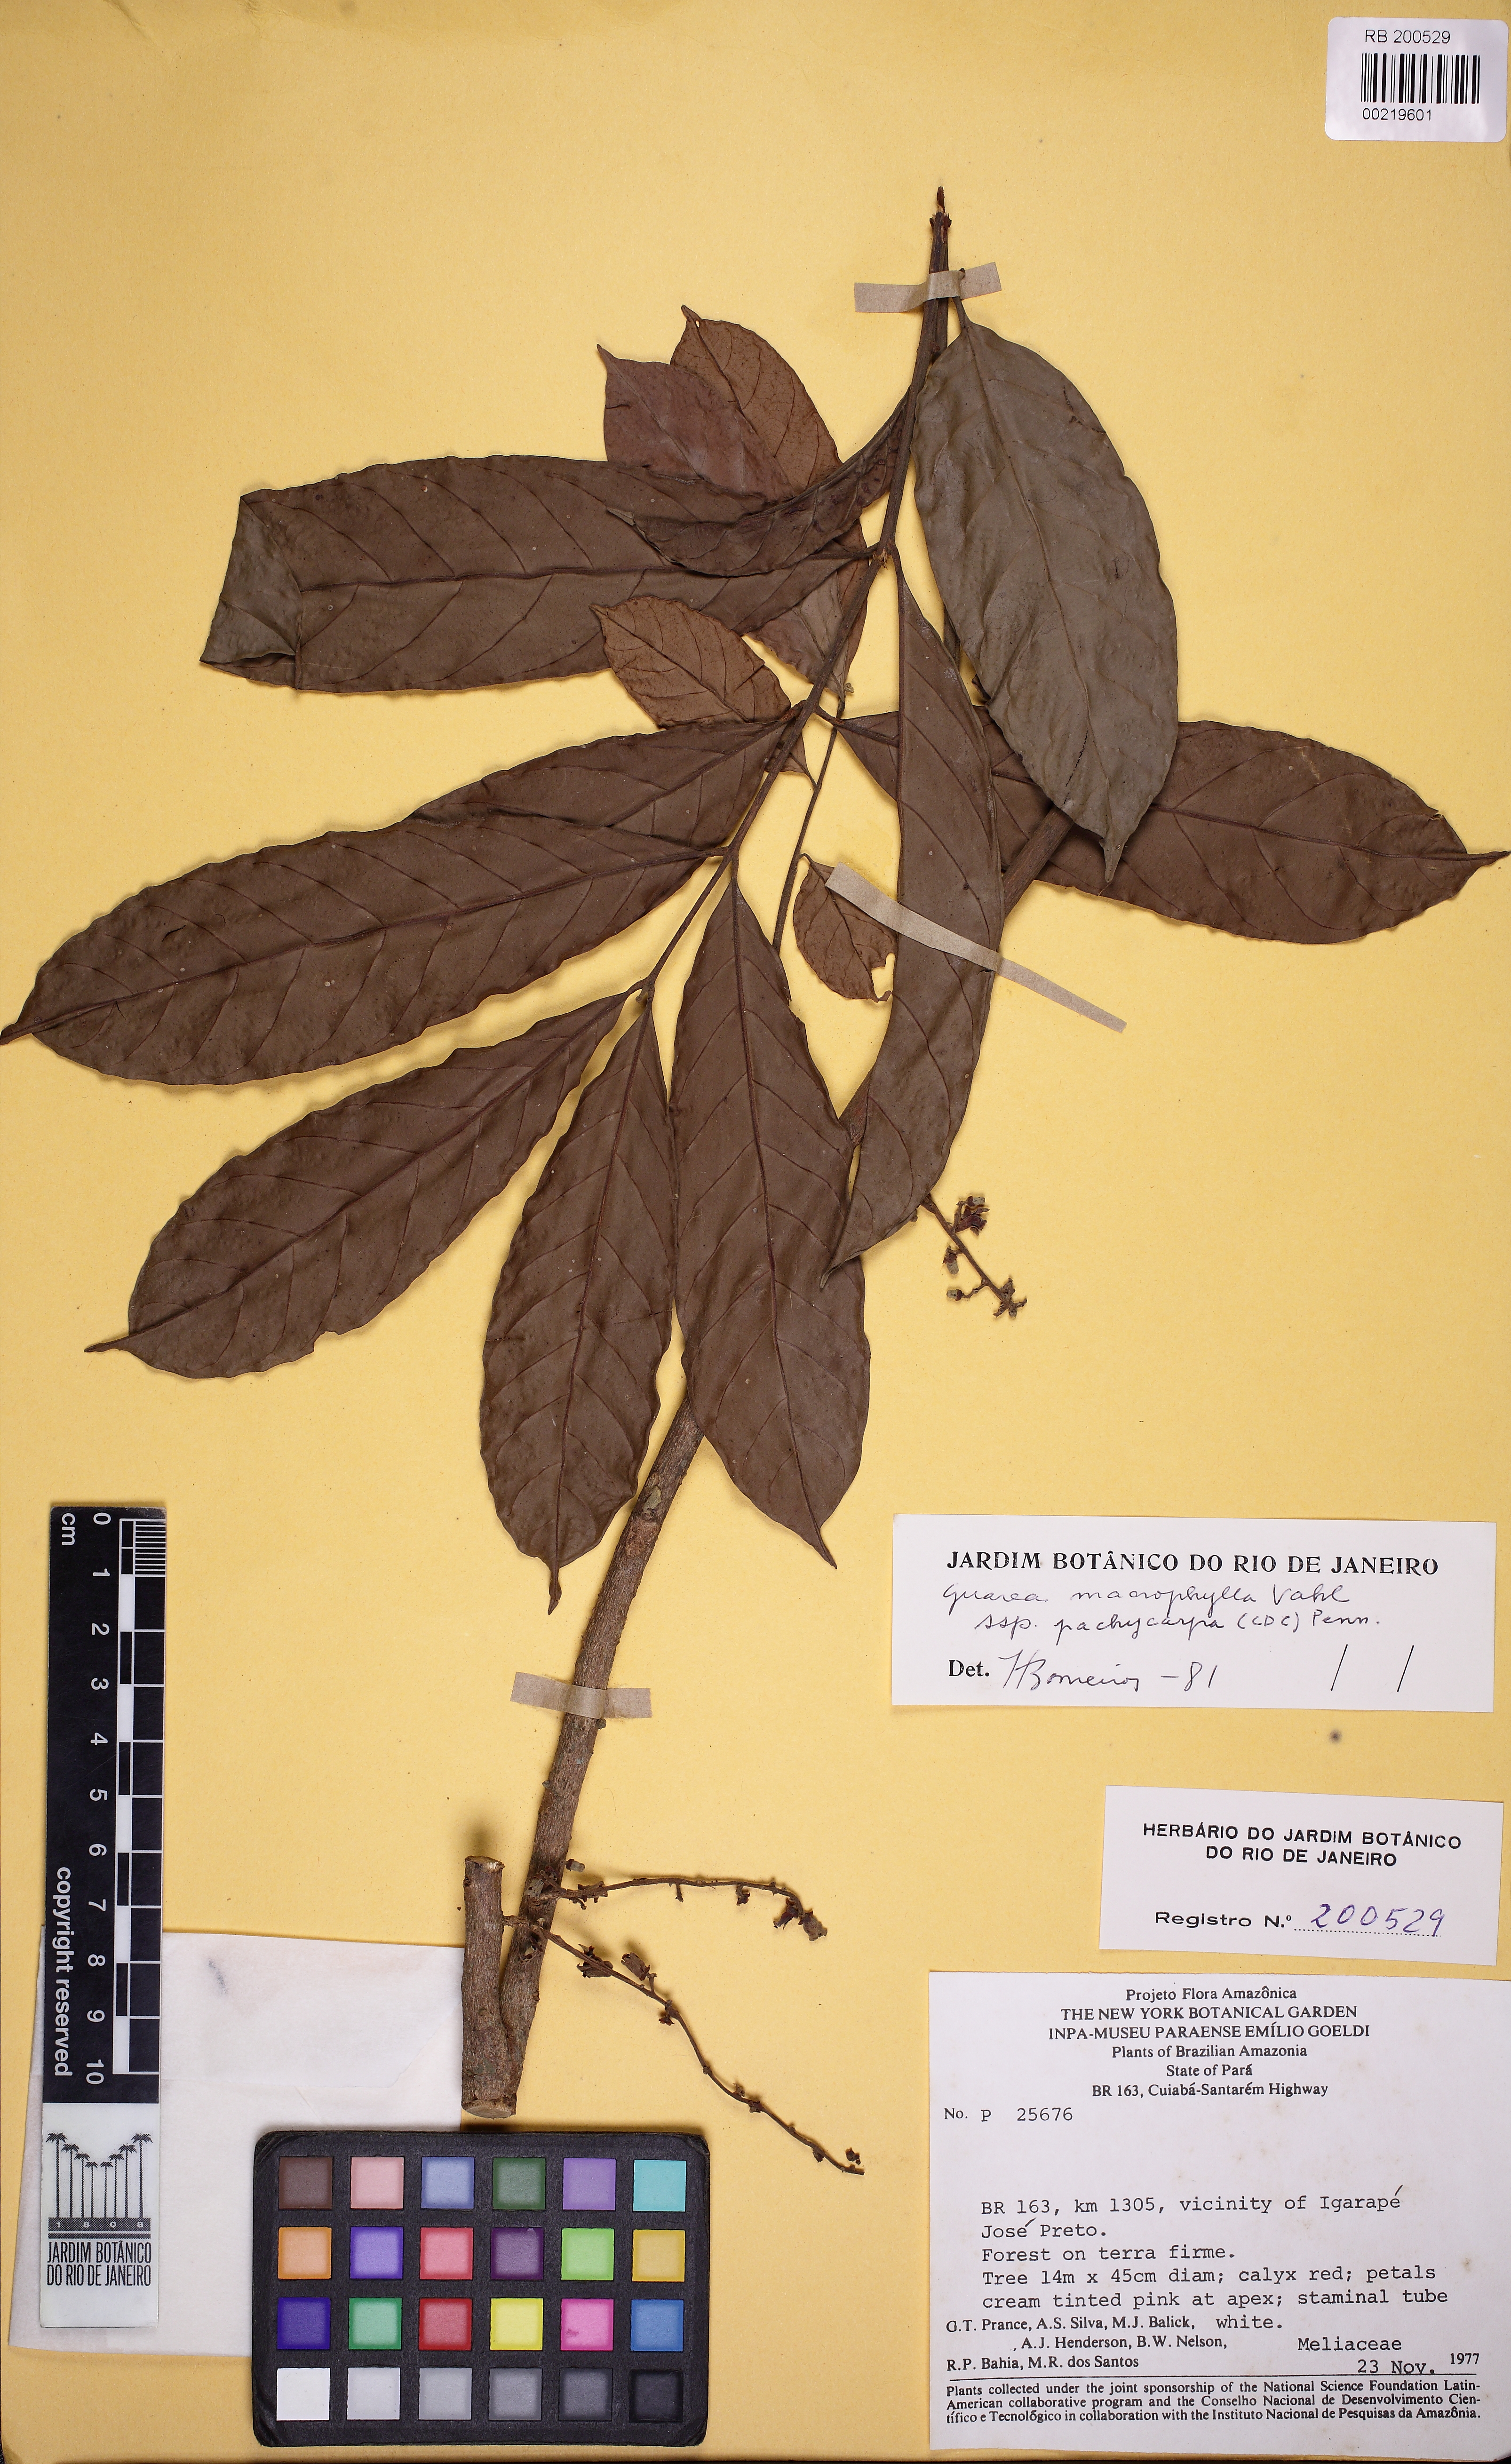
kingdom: Plantae
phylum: Tracheophyta
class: Magnoliopsida
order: Sapindales
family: Meliaceae
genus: Guarea
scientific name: Guarea macrophylla
